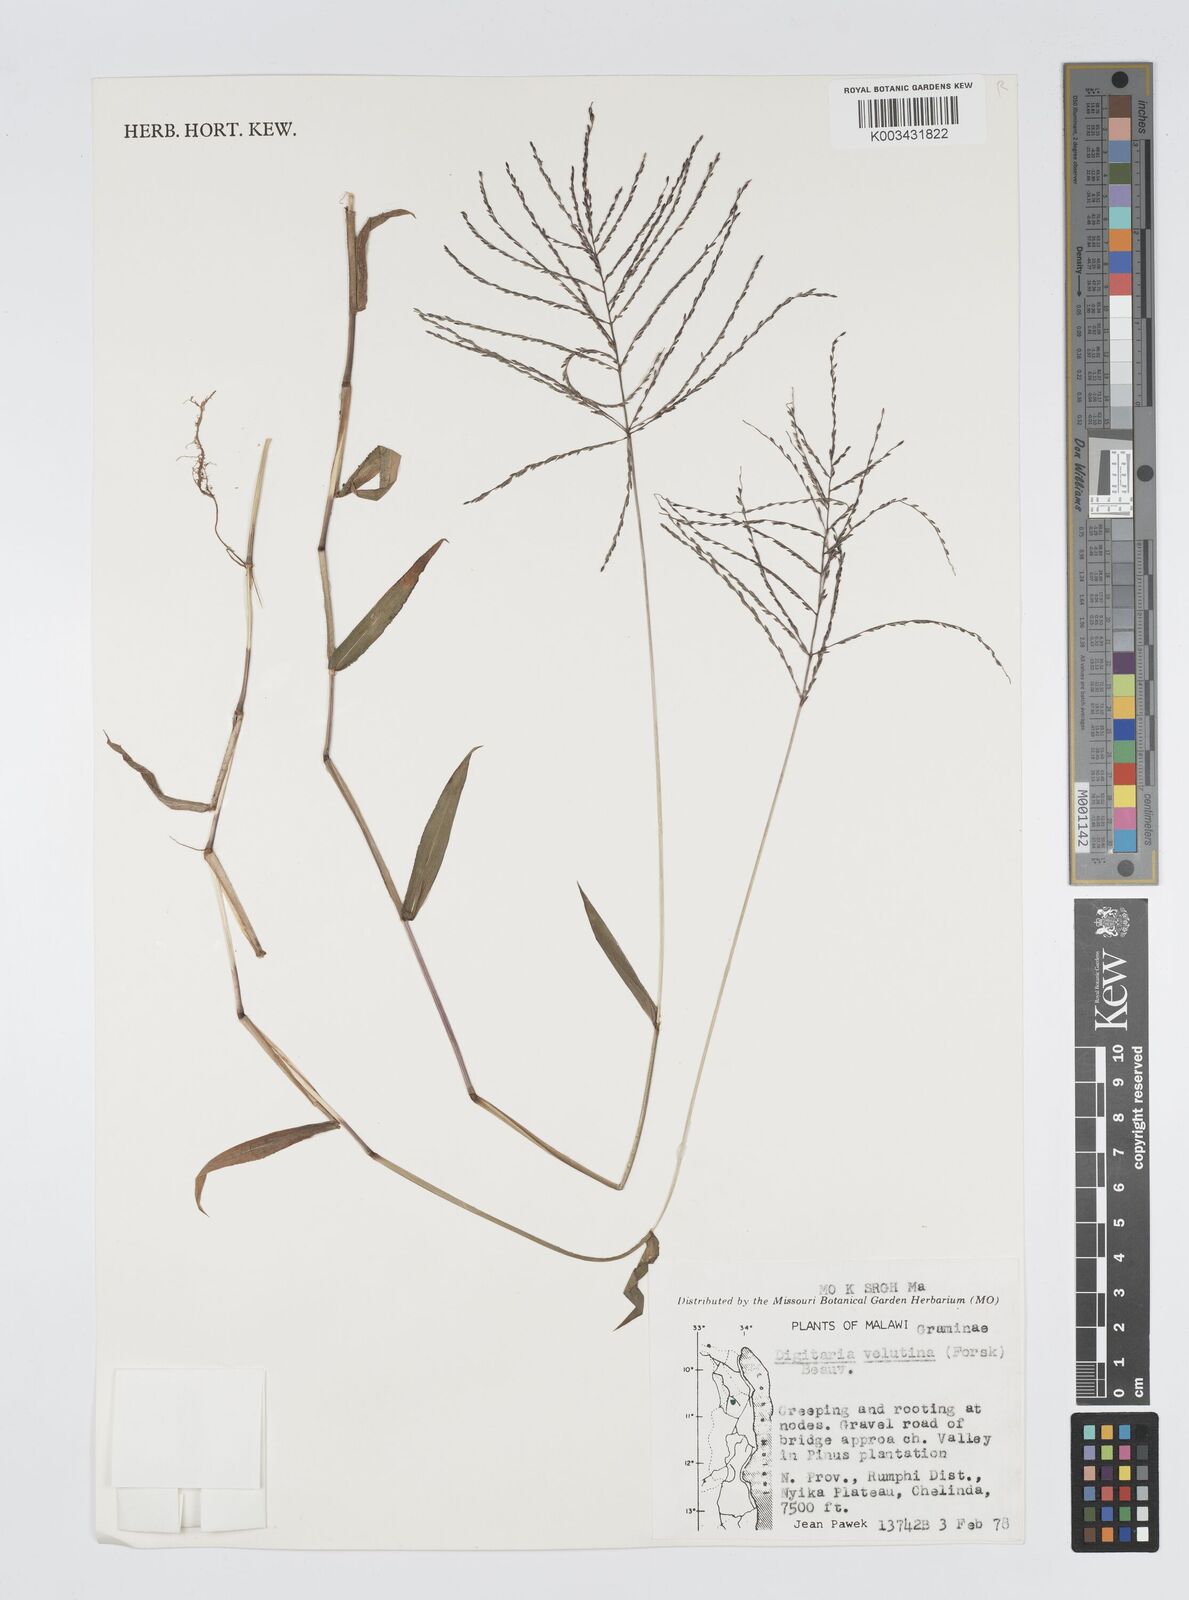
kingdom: Plantae
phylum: Tracheophyta
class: Liliopsida
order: Poales
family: Poaceae
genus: Digitaria
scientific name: Digitaria velutina
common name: Long-plume finger grass
